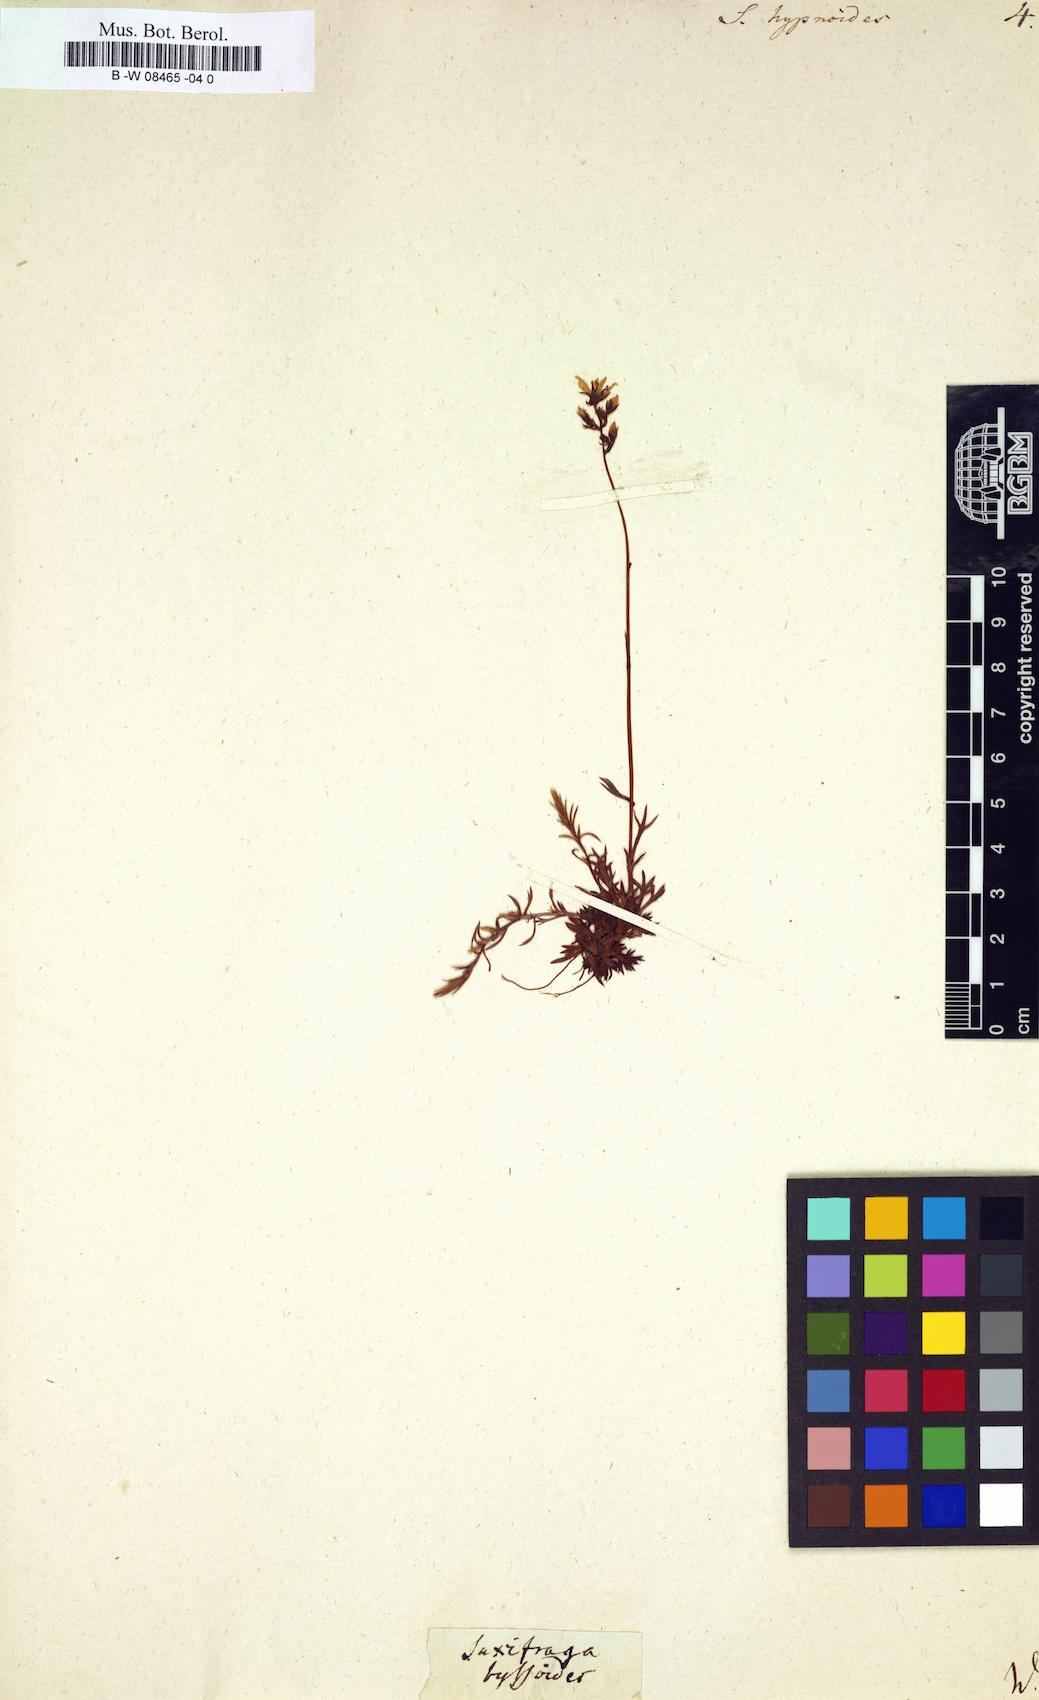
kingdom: Plantae
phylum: Tracheophyta
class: Magnoliopsida
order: Saxifragales
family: Saxifragaceae
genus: Saxifraga
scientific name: Saxifraga hypnoides
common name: Mossy saxifrage
